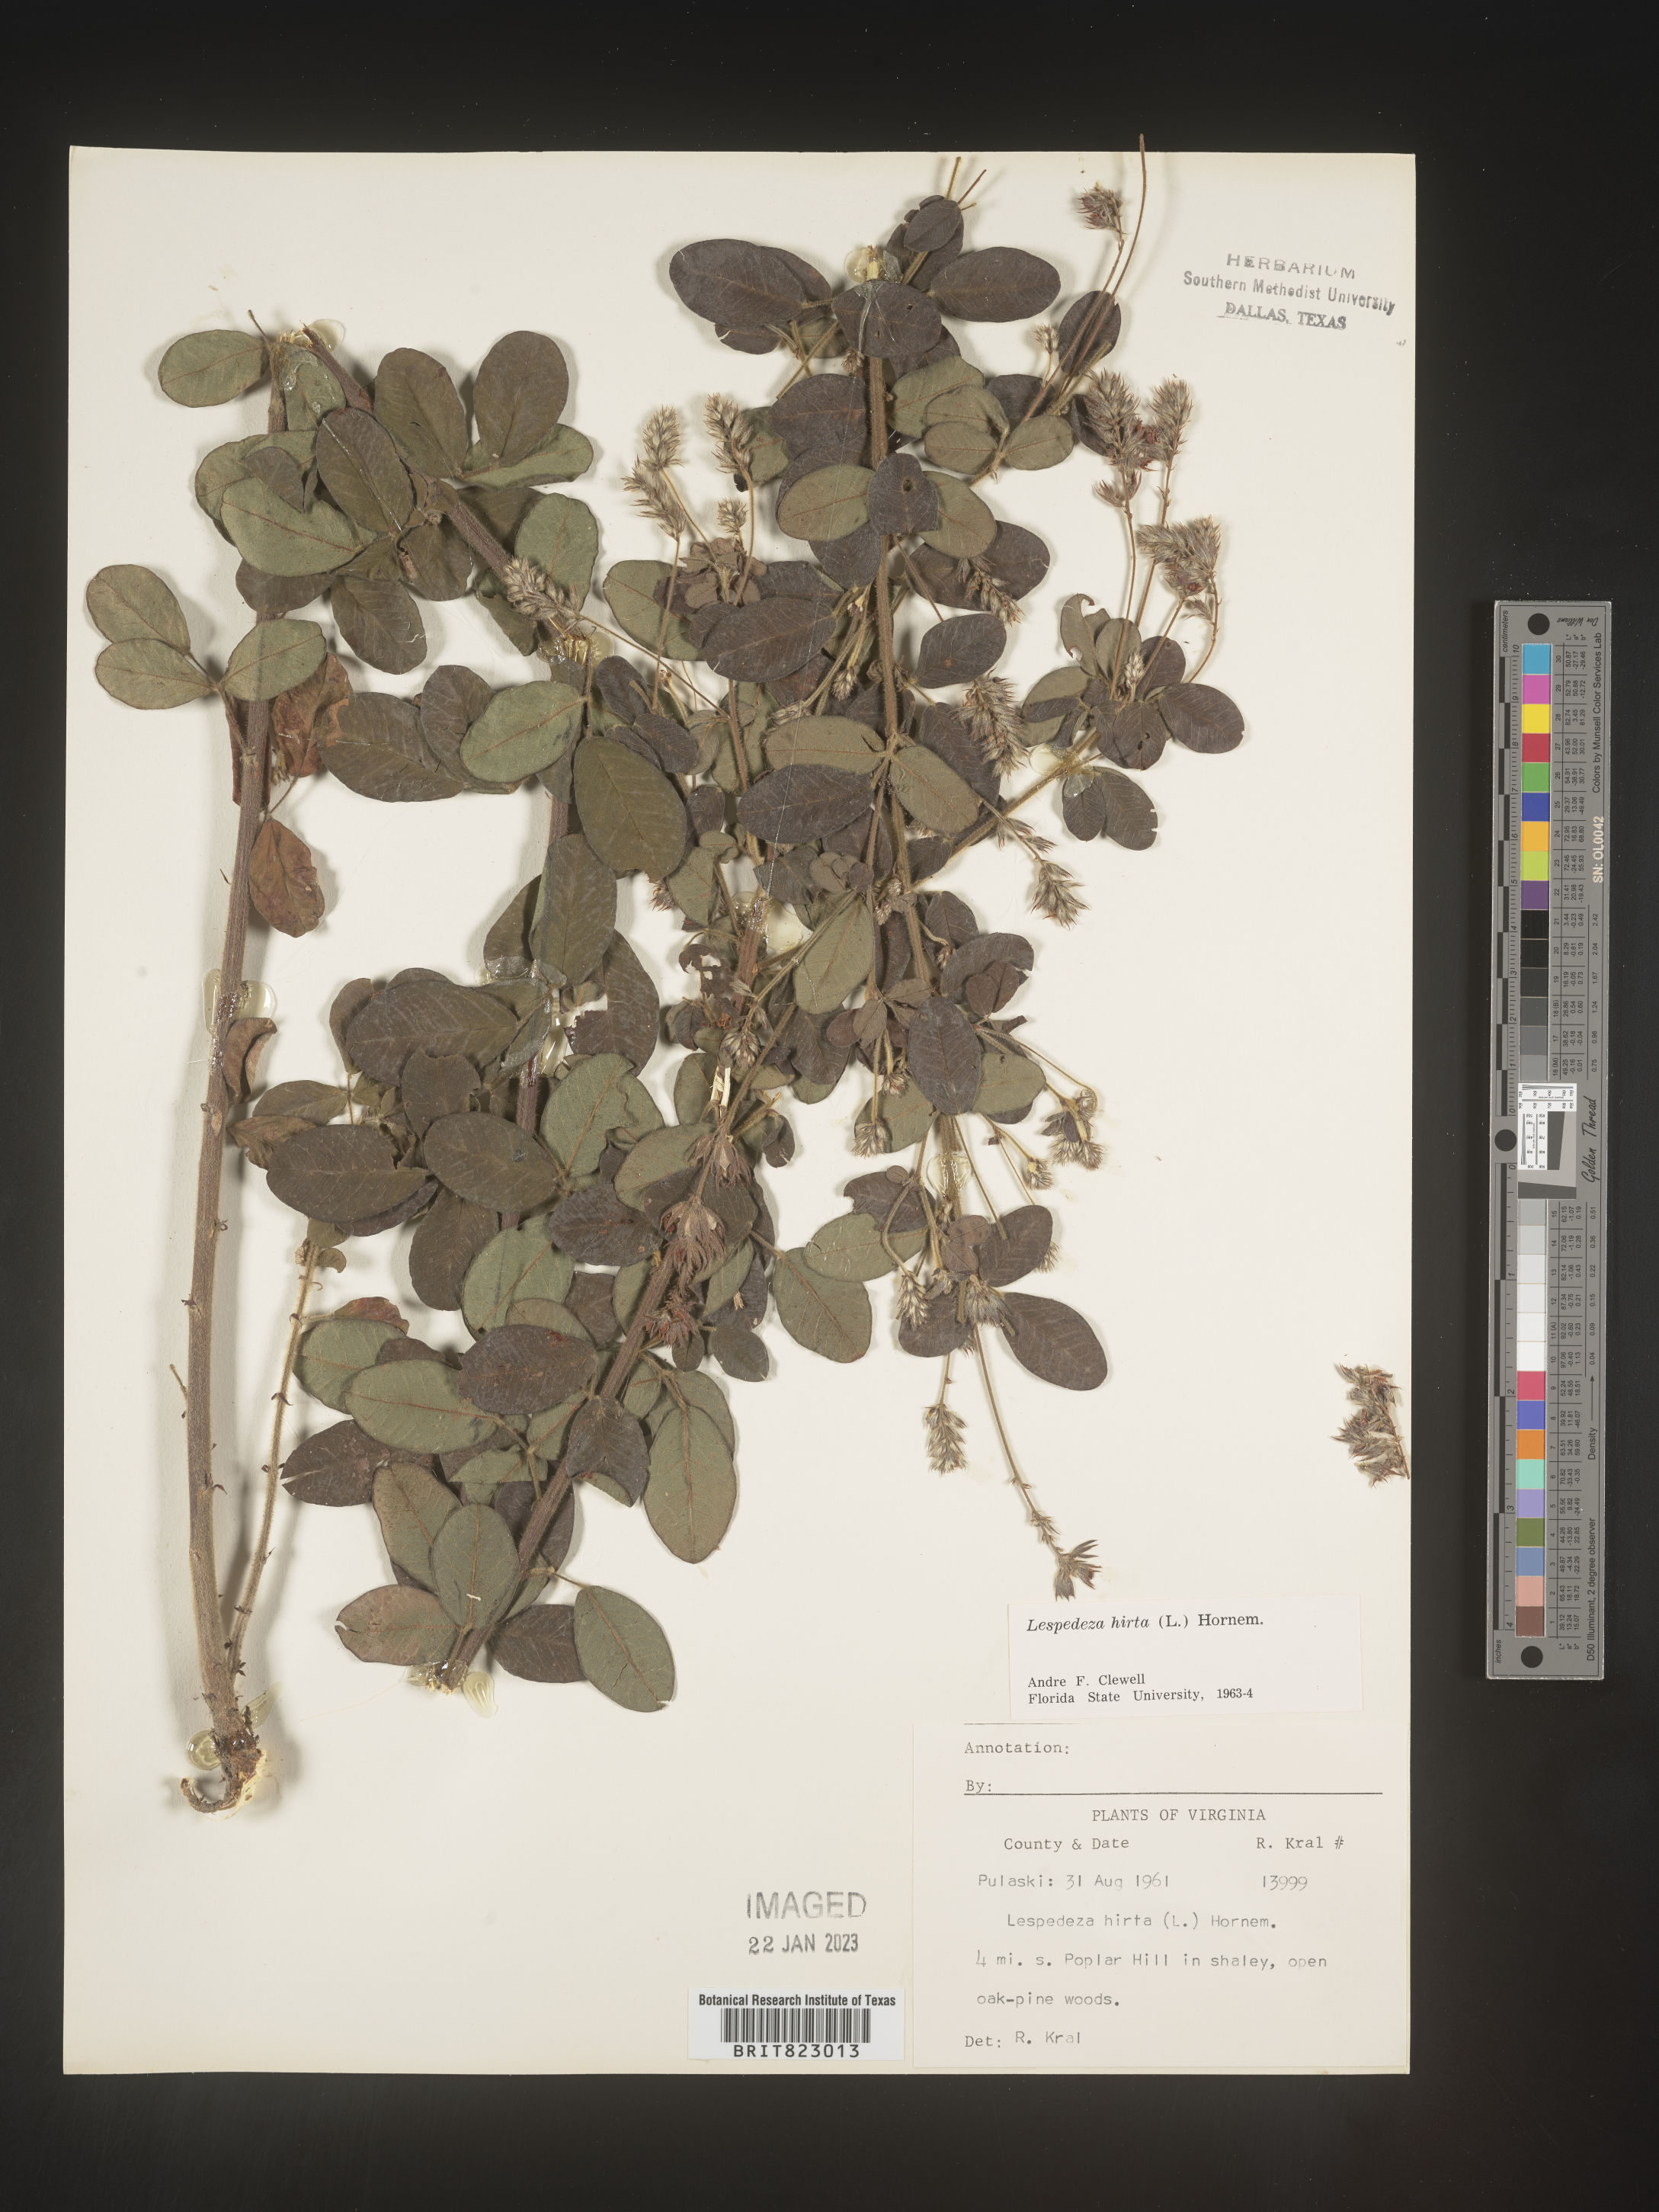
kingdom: Plantae
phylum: Tracheophyta
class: Magnoliopsida
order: Fabales
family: Fabaceae
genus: Lespedeza
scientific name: Lespedeza hirta
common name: Hairy lespedeza
